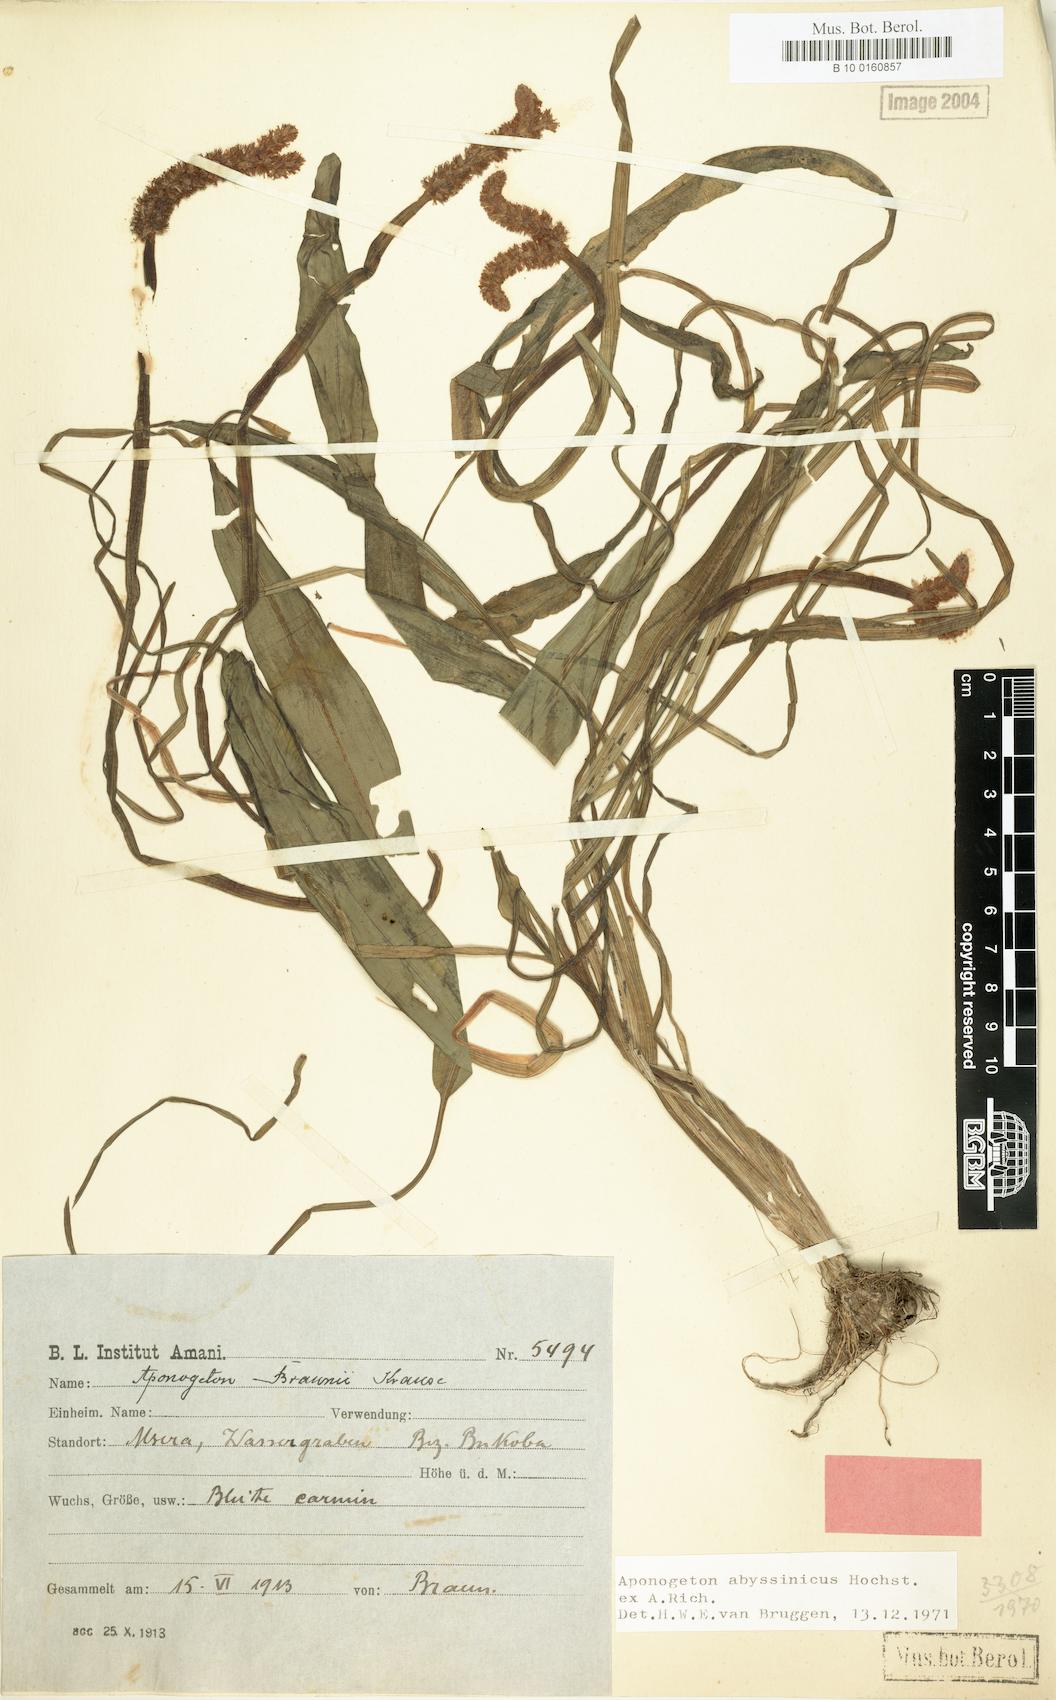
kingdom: Plantae
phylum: Tracheophyta
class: Liliopsida
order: Alismatales
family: Aponogetonaceae
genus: Aponogeton
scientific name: Aponogeton abyssinicus
